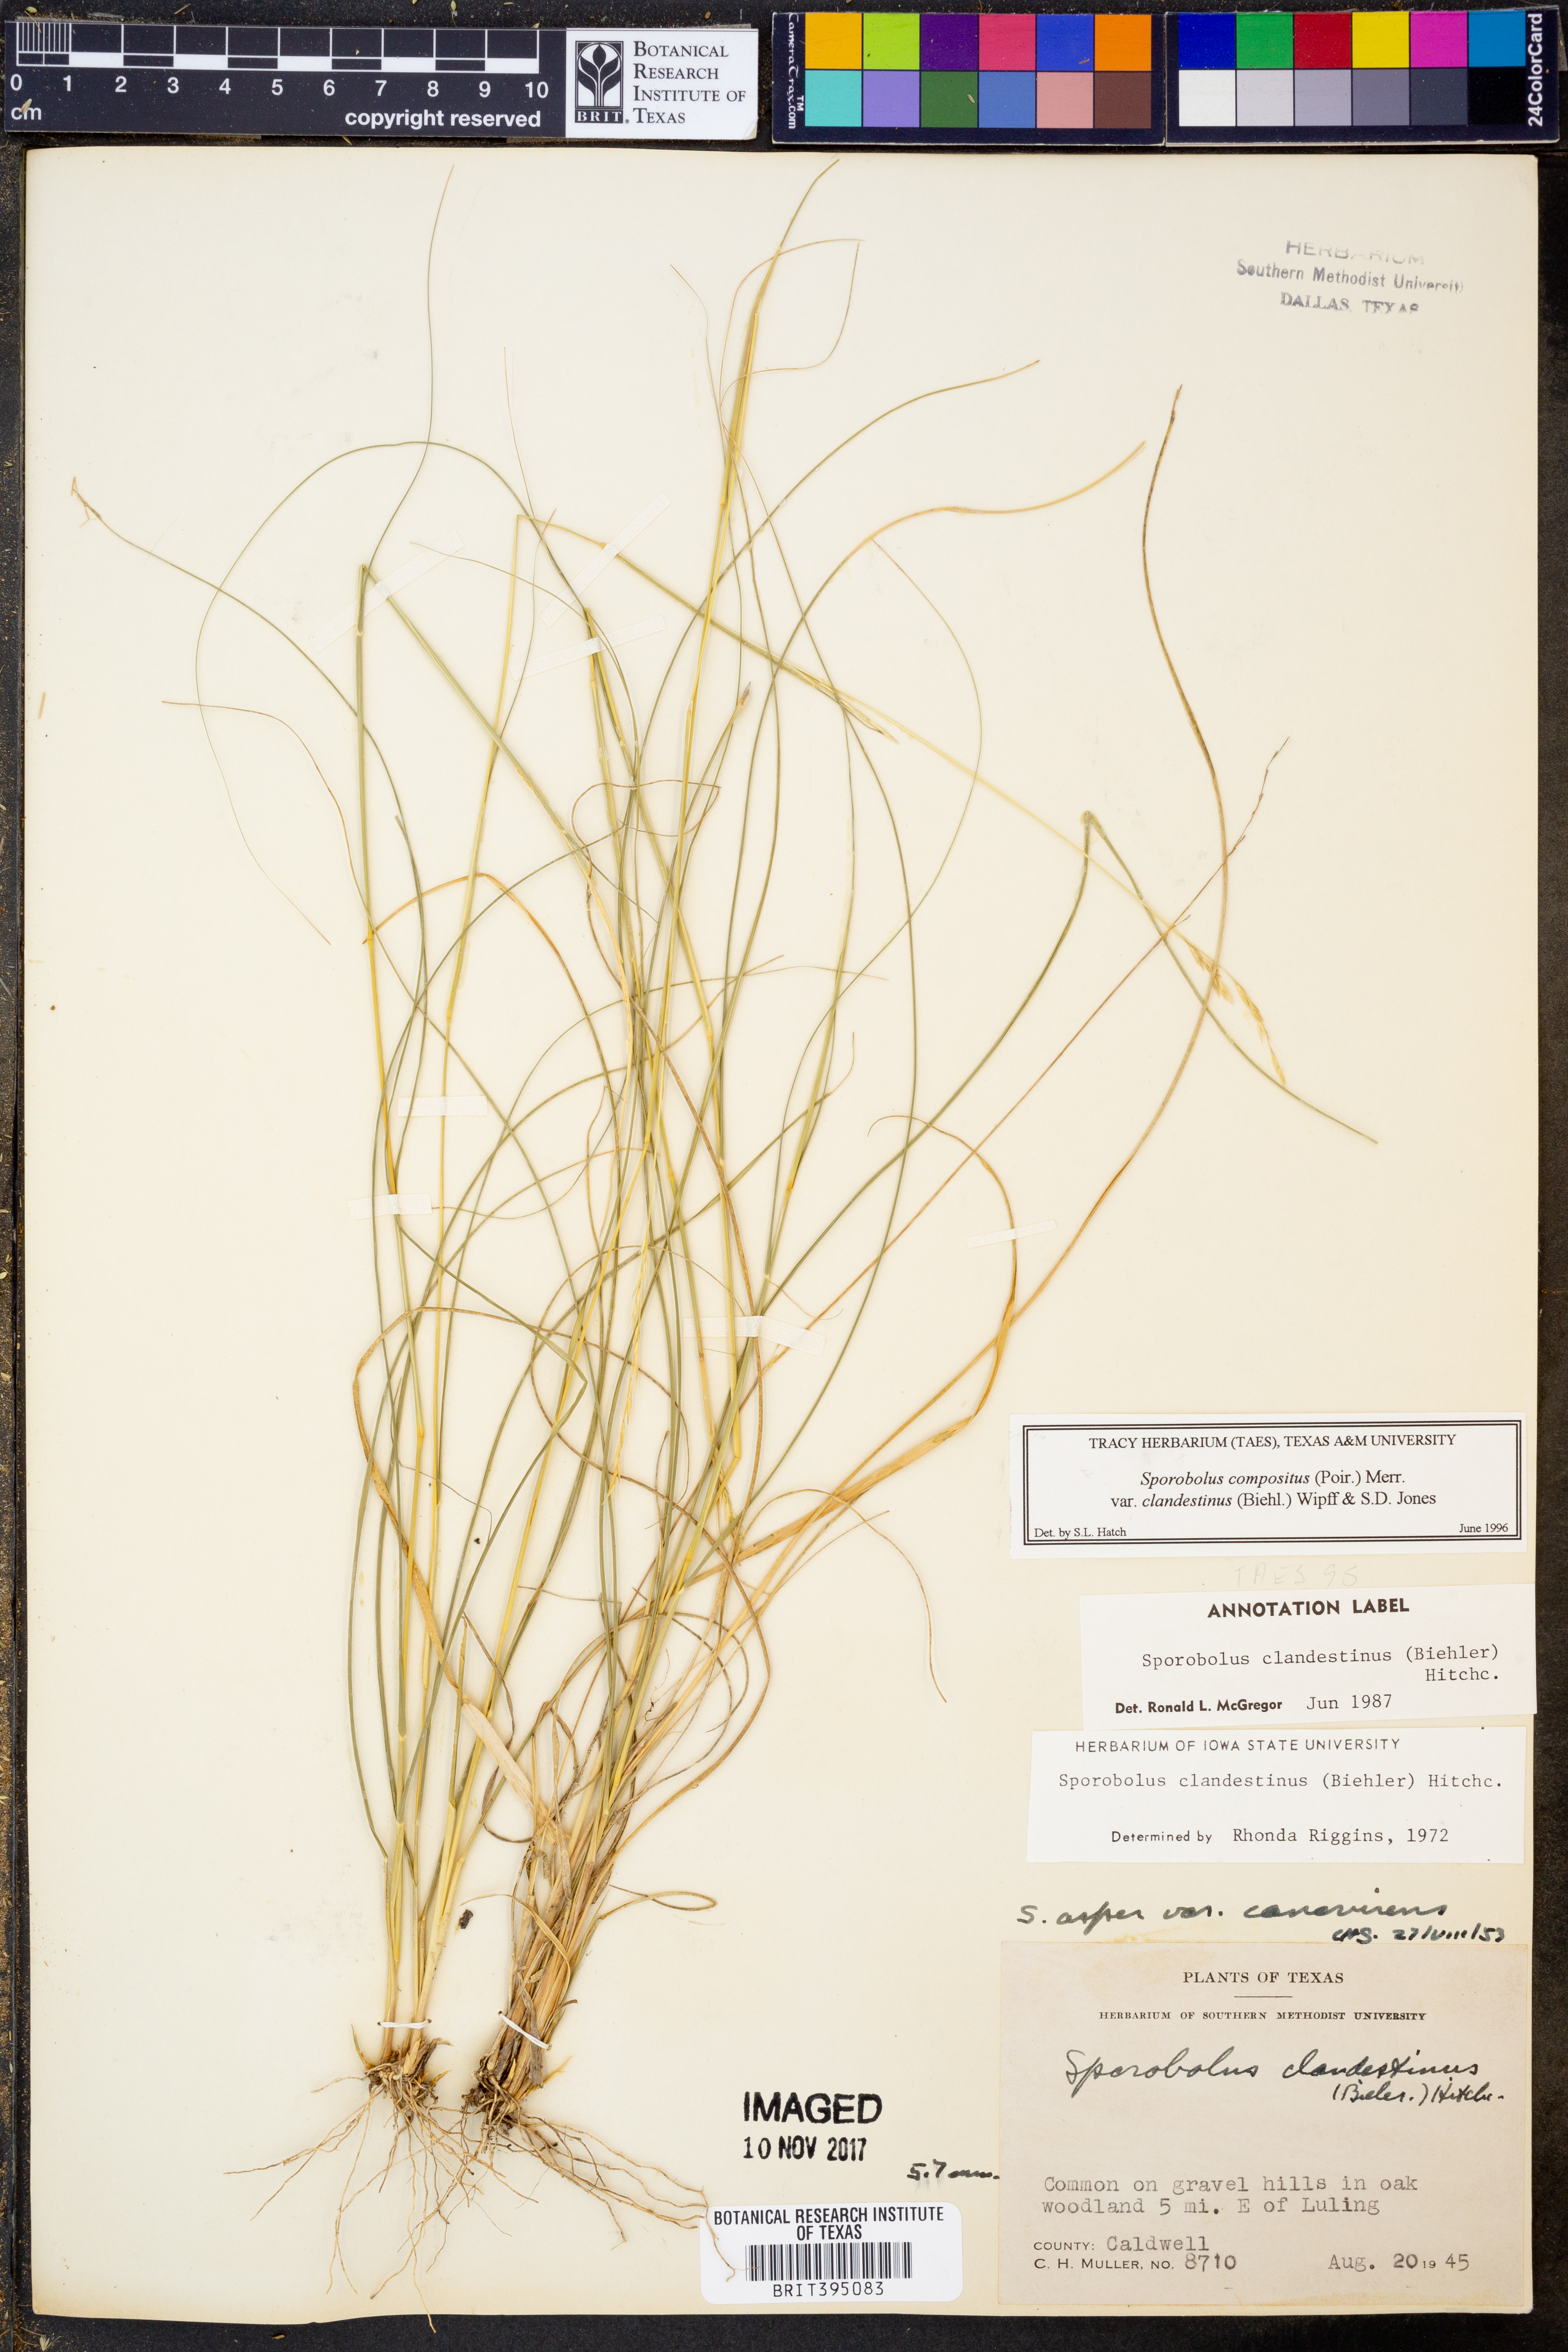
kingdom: Plantae
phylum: Tracheophyta
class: Liliopsida
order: Poales
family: Poaceae
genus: Sporobolus
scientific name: Sporobolus clandestinus
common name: Hidden dropseed
